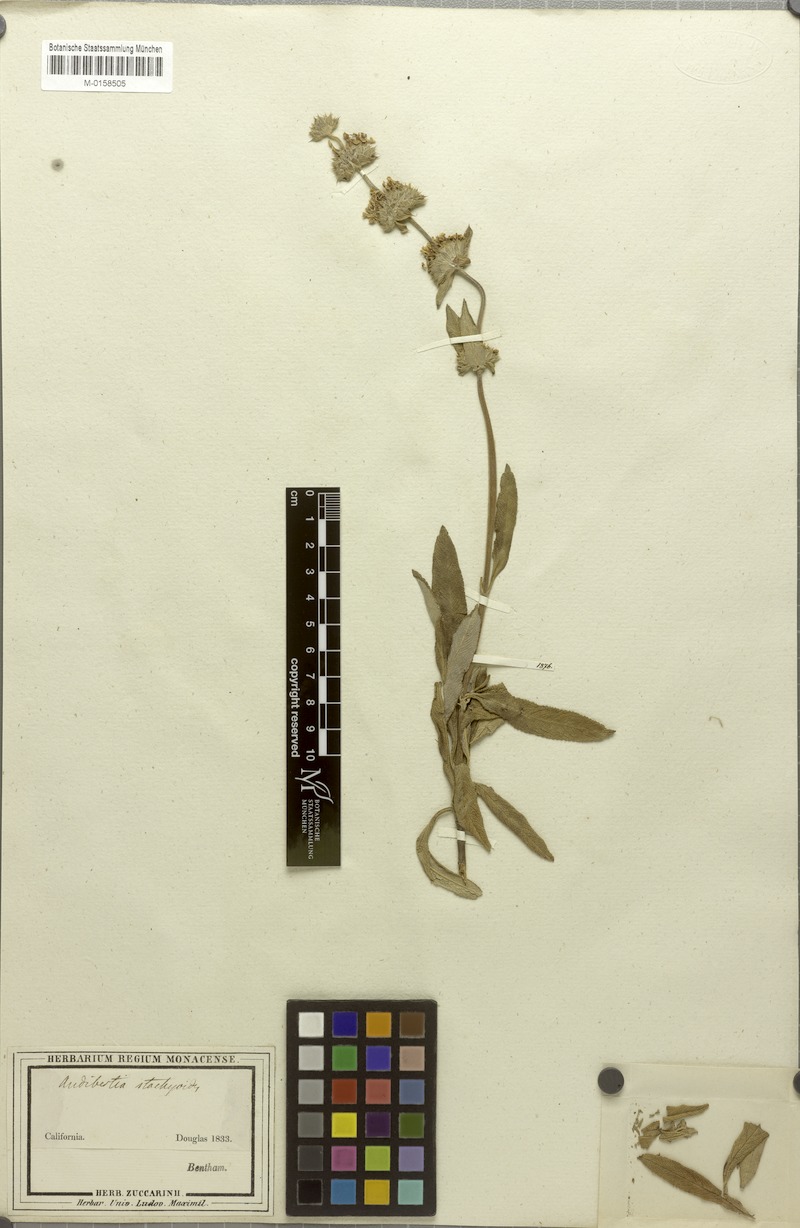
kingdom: Plantae
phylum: Tracheophyta
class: Magnoliopsida
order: Lamiales
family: Lamiaceae
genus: Salvia
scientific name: Salvia mellifera
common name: Black sage
